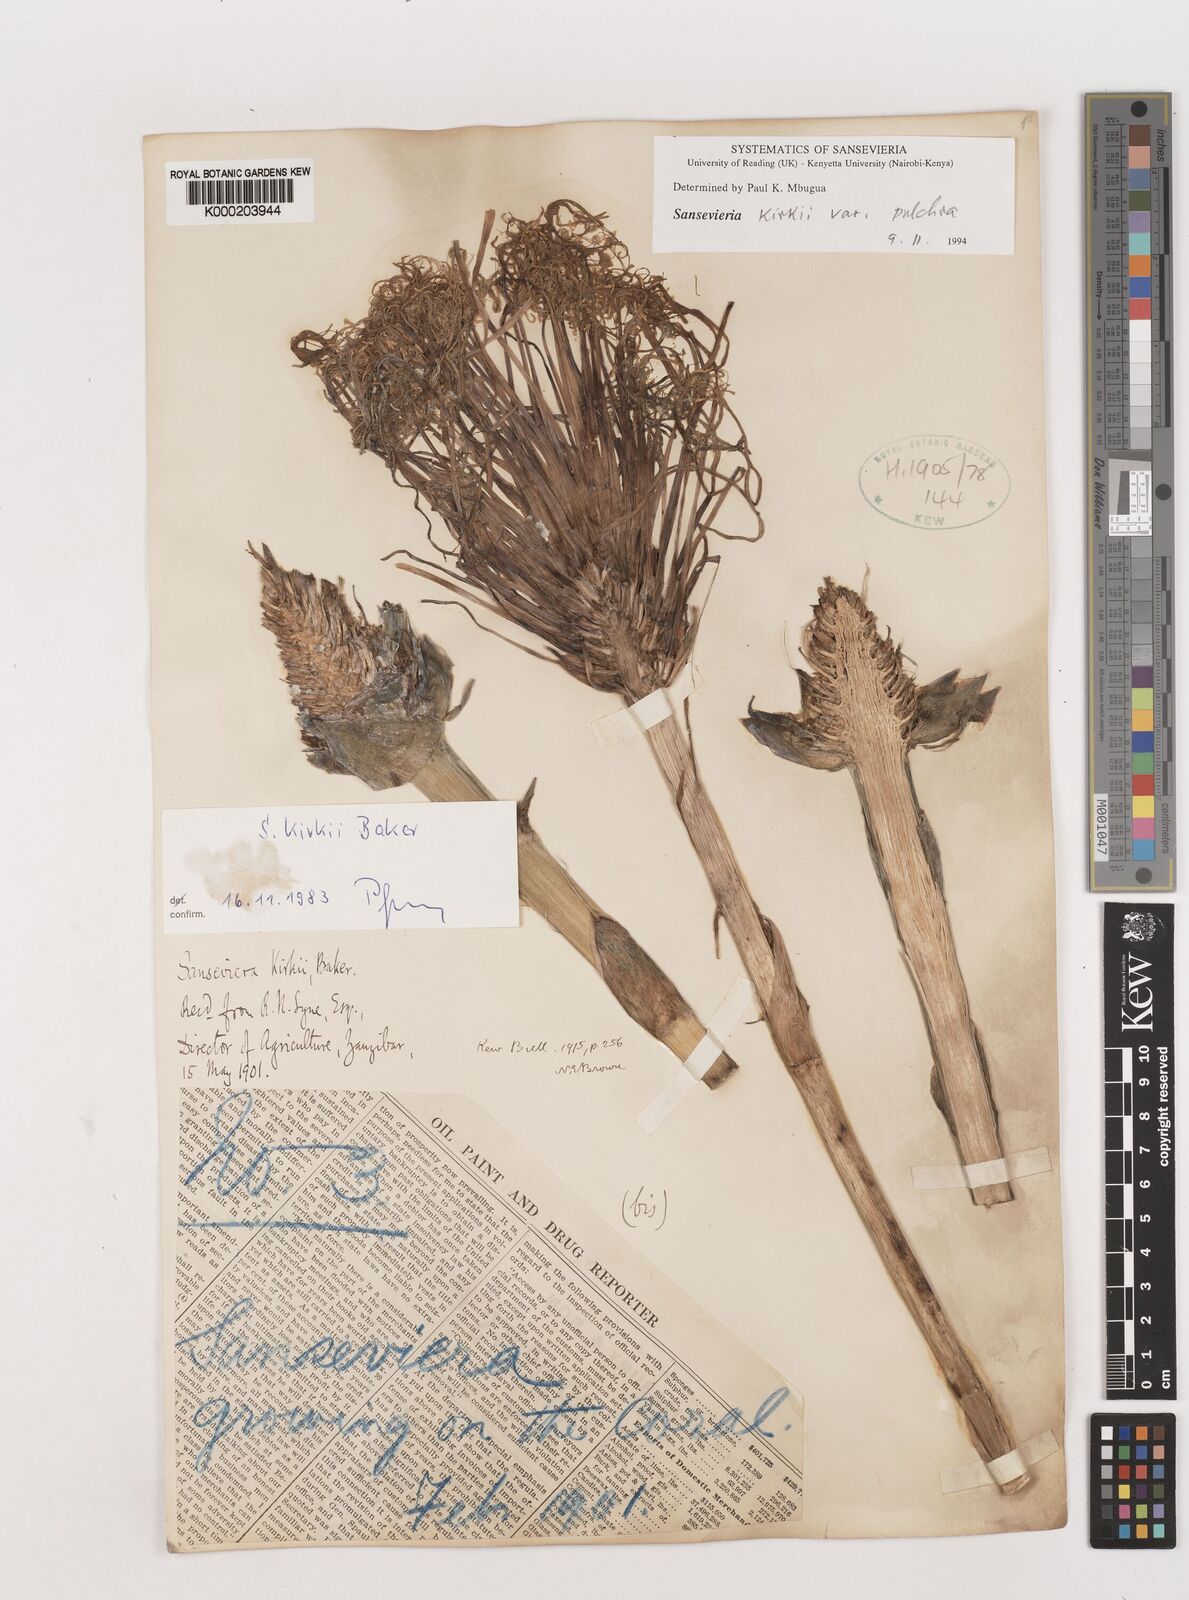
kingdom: Plantae
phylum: Tracheophyta
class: Liliopsida
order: Asparagales
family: Asparagaceae
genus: Dracaena
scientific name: Dracaena pethera
